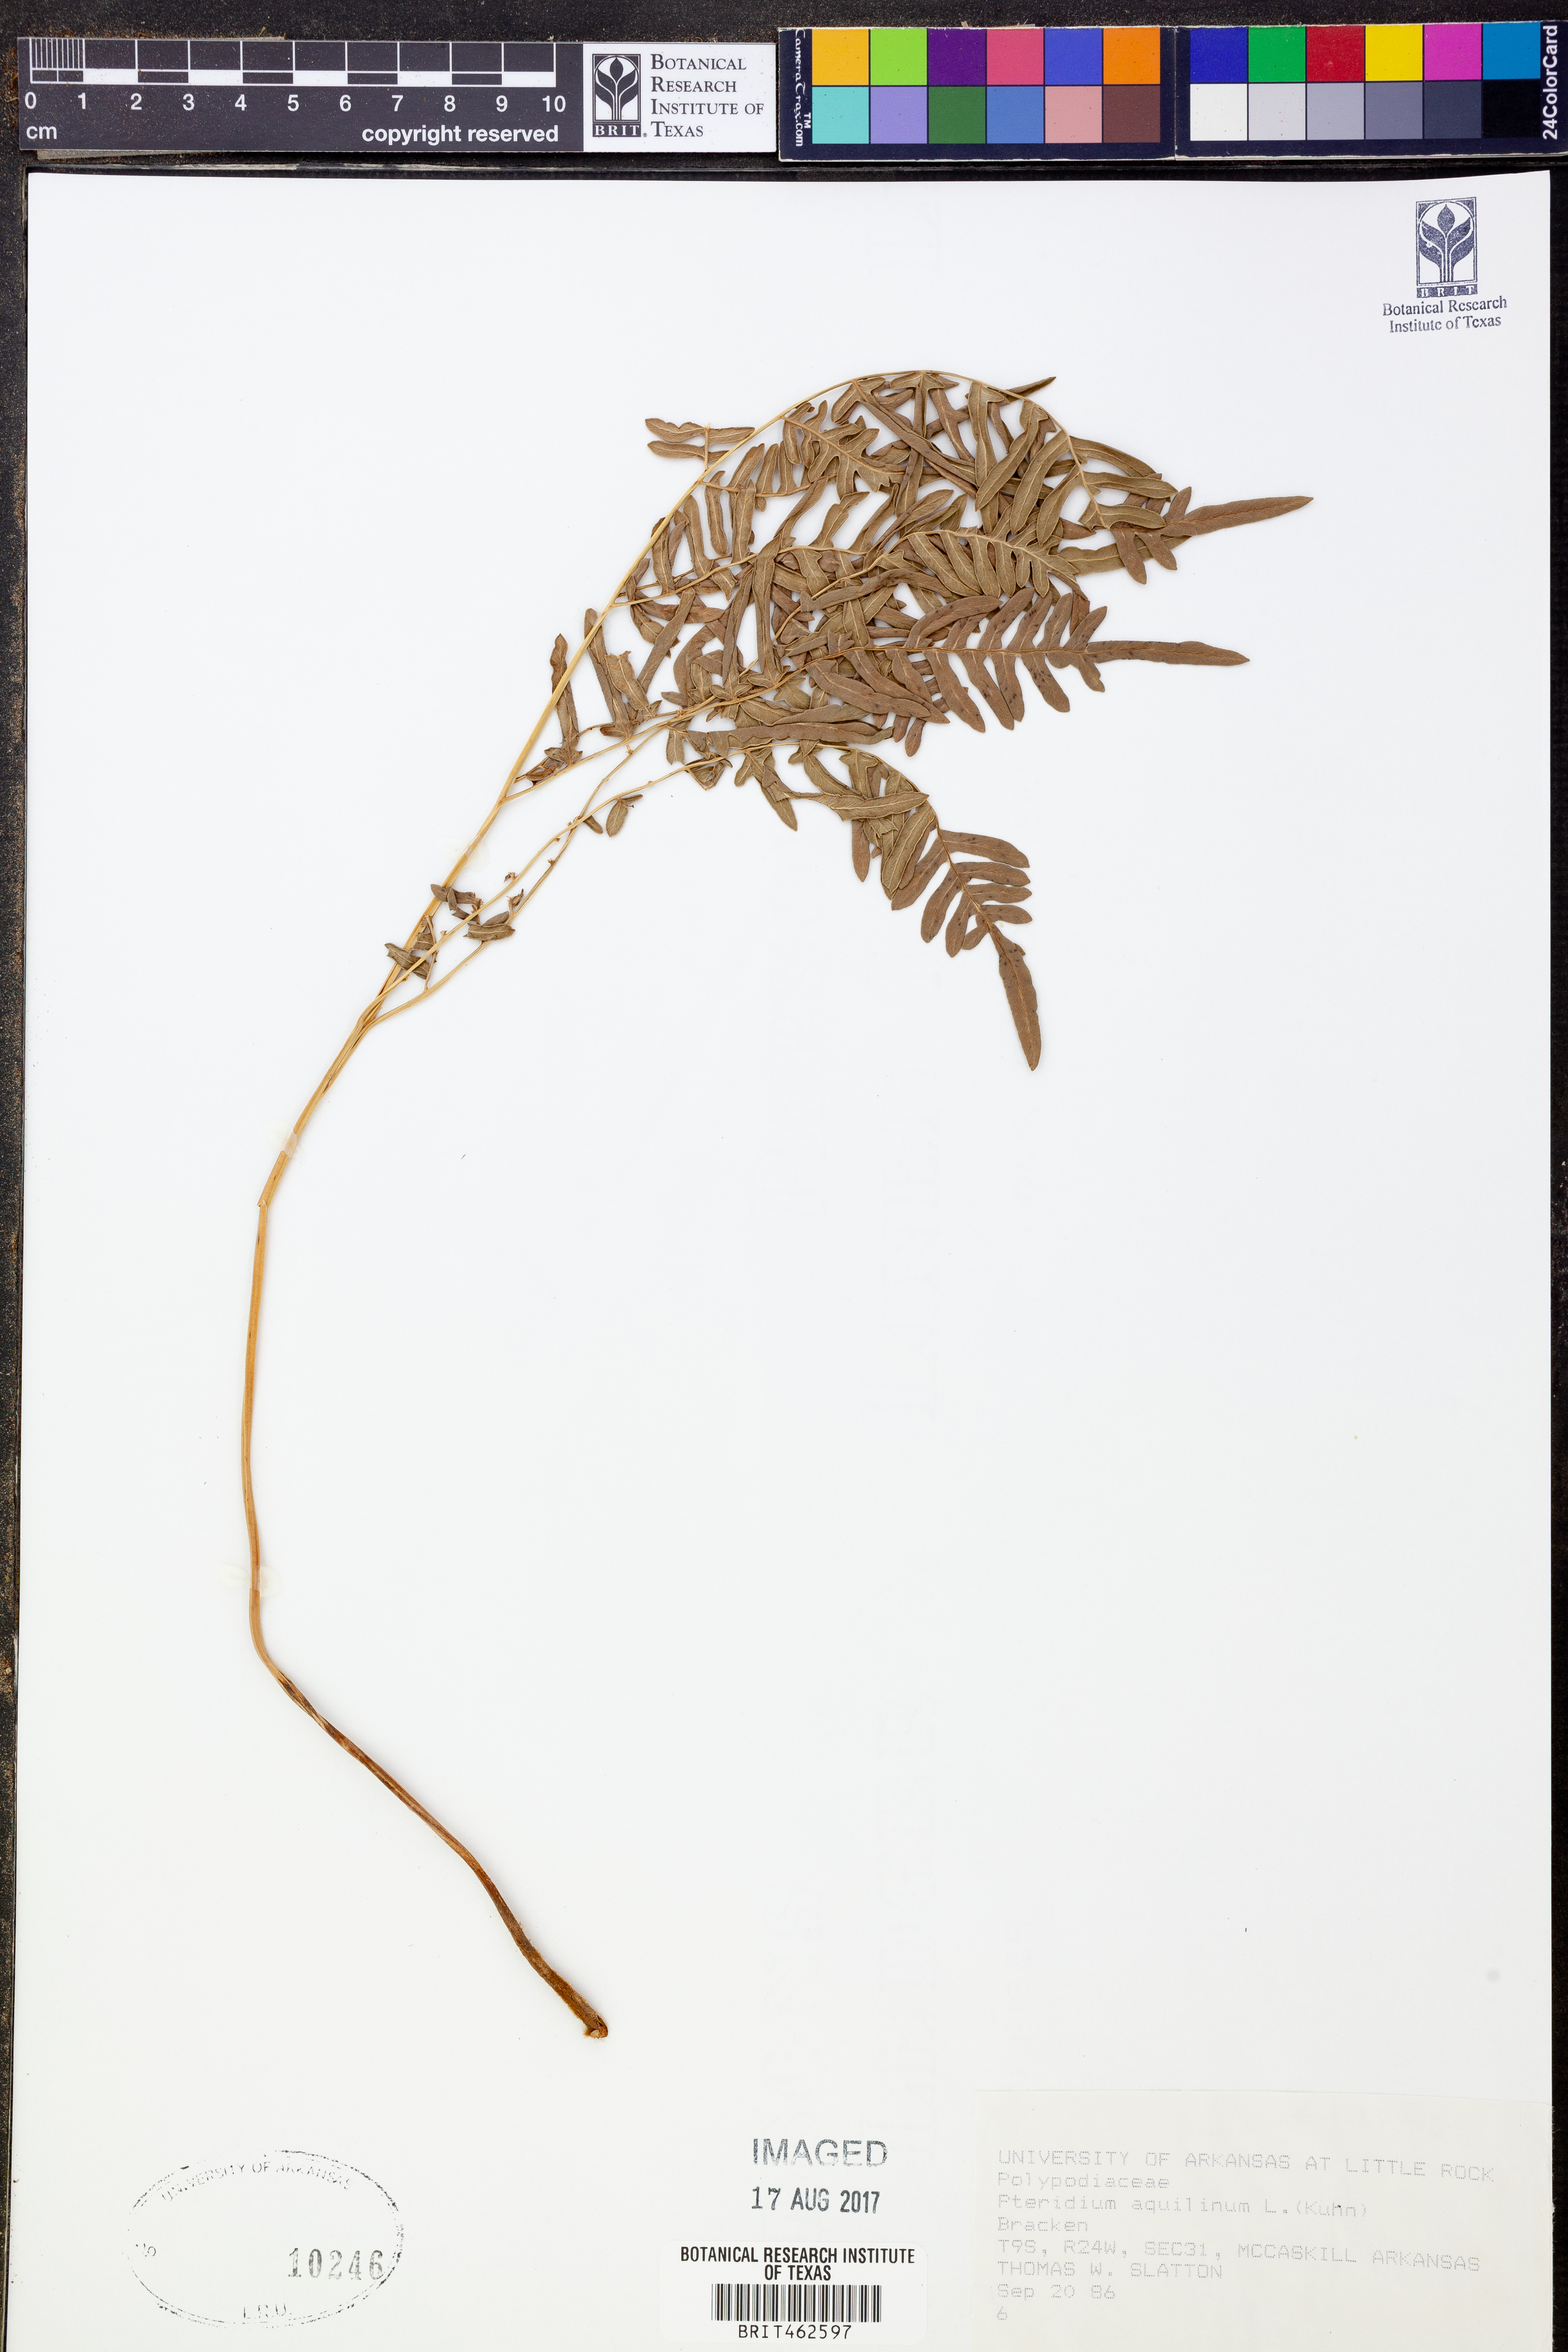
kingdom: Plantae
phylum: Tracheophyta
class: Polypodiopsida
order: Polypodiales
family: Dennstaedtiaceae
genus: Pteridium
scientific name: Pteridium aquilinum
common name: Bracken
